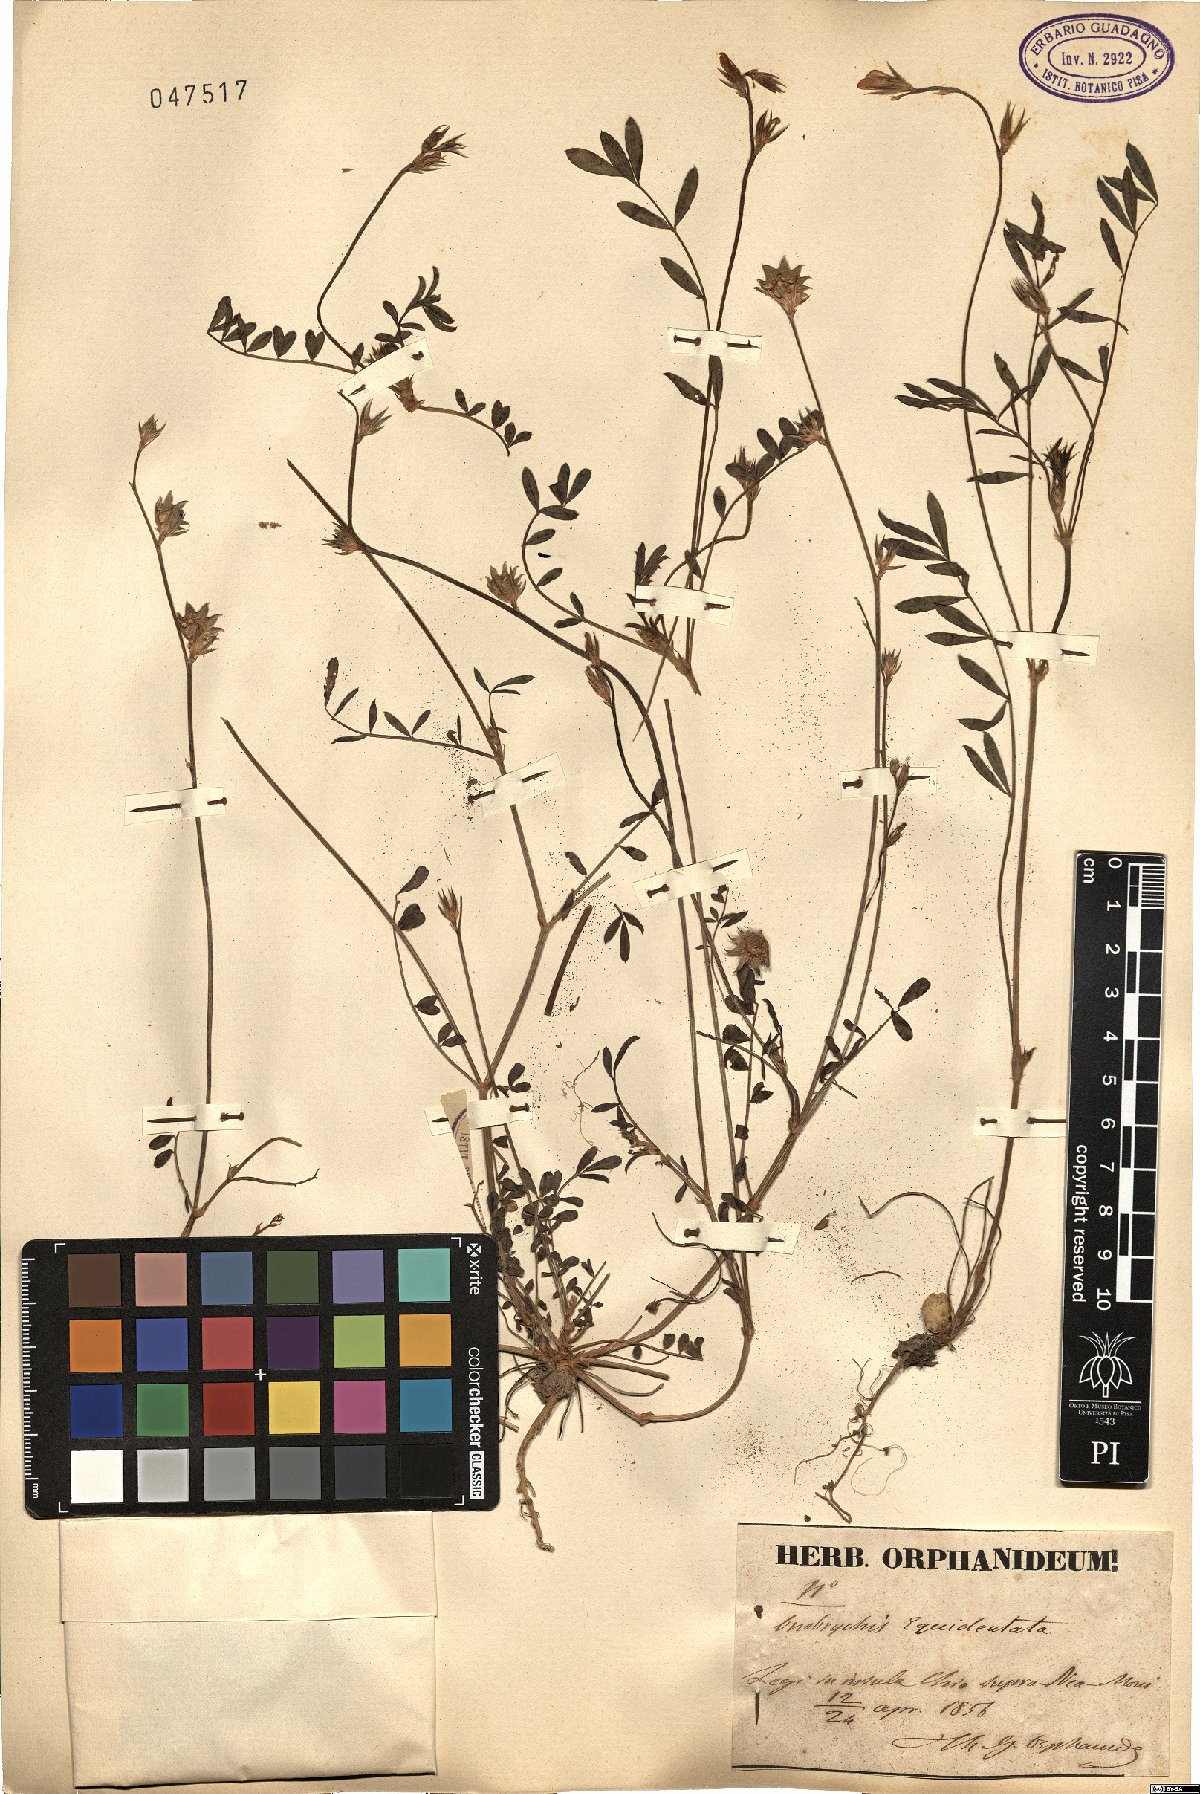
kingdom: Plantae
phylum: Tracheophyta
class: Magnoliopsida
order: Fabales
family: Fabaceae
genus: Onobrychis
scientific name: Onobrychis aequidentata
